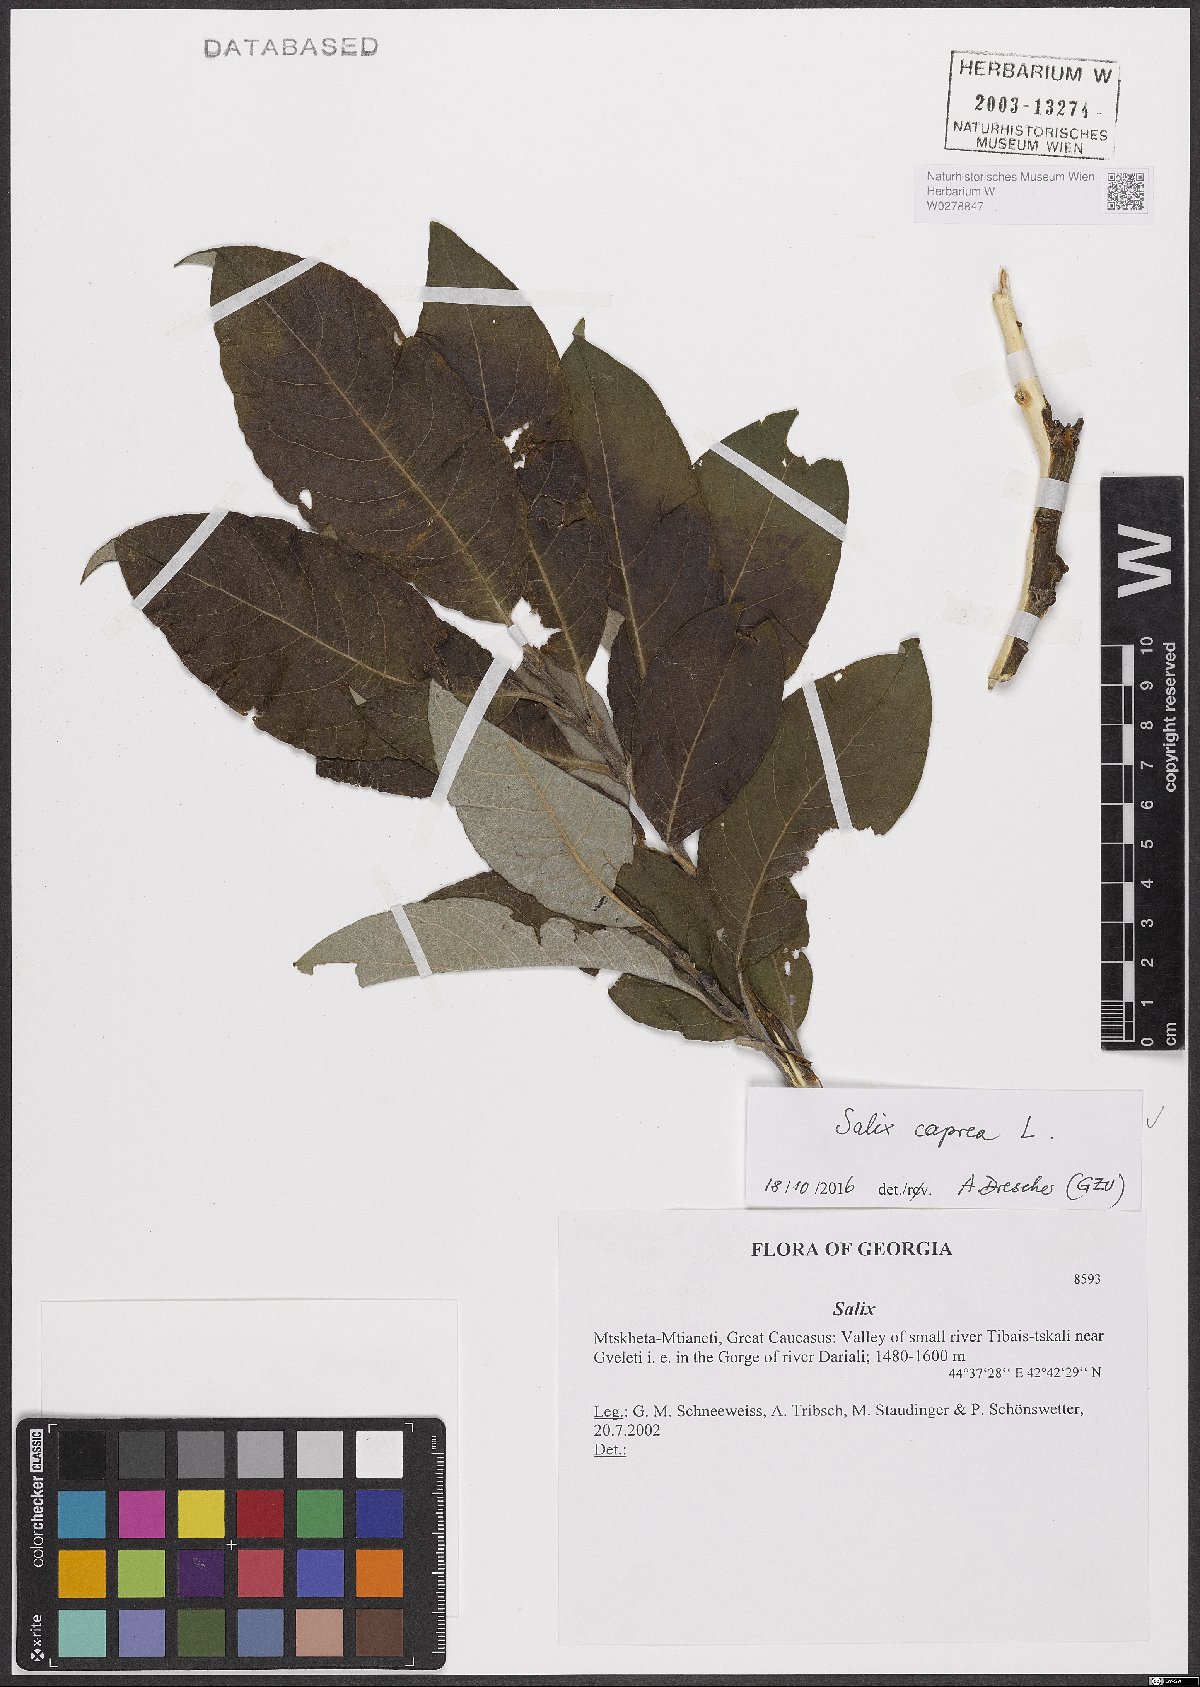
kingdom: Plantae
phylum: Tracheophyta
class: Magnoliopsida
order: Malpighiales
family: Salicaceae
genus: Salix
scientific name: Salix caprea
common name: Goat willow
